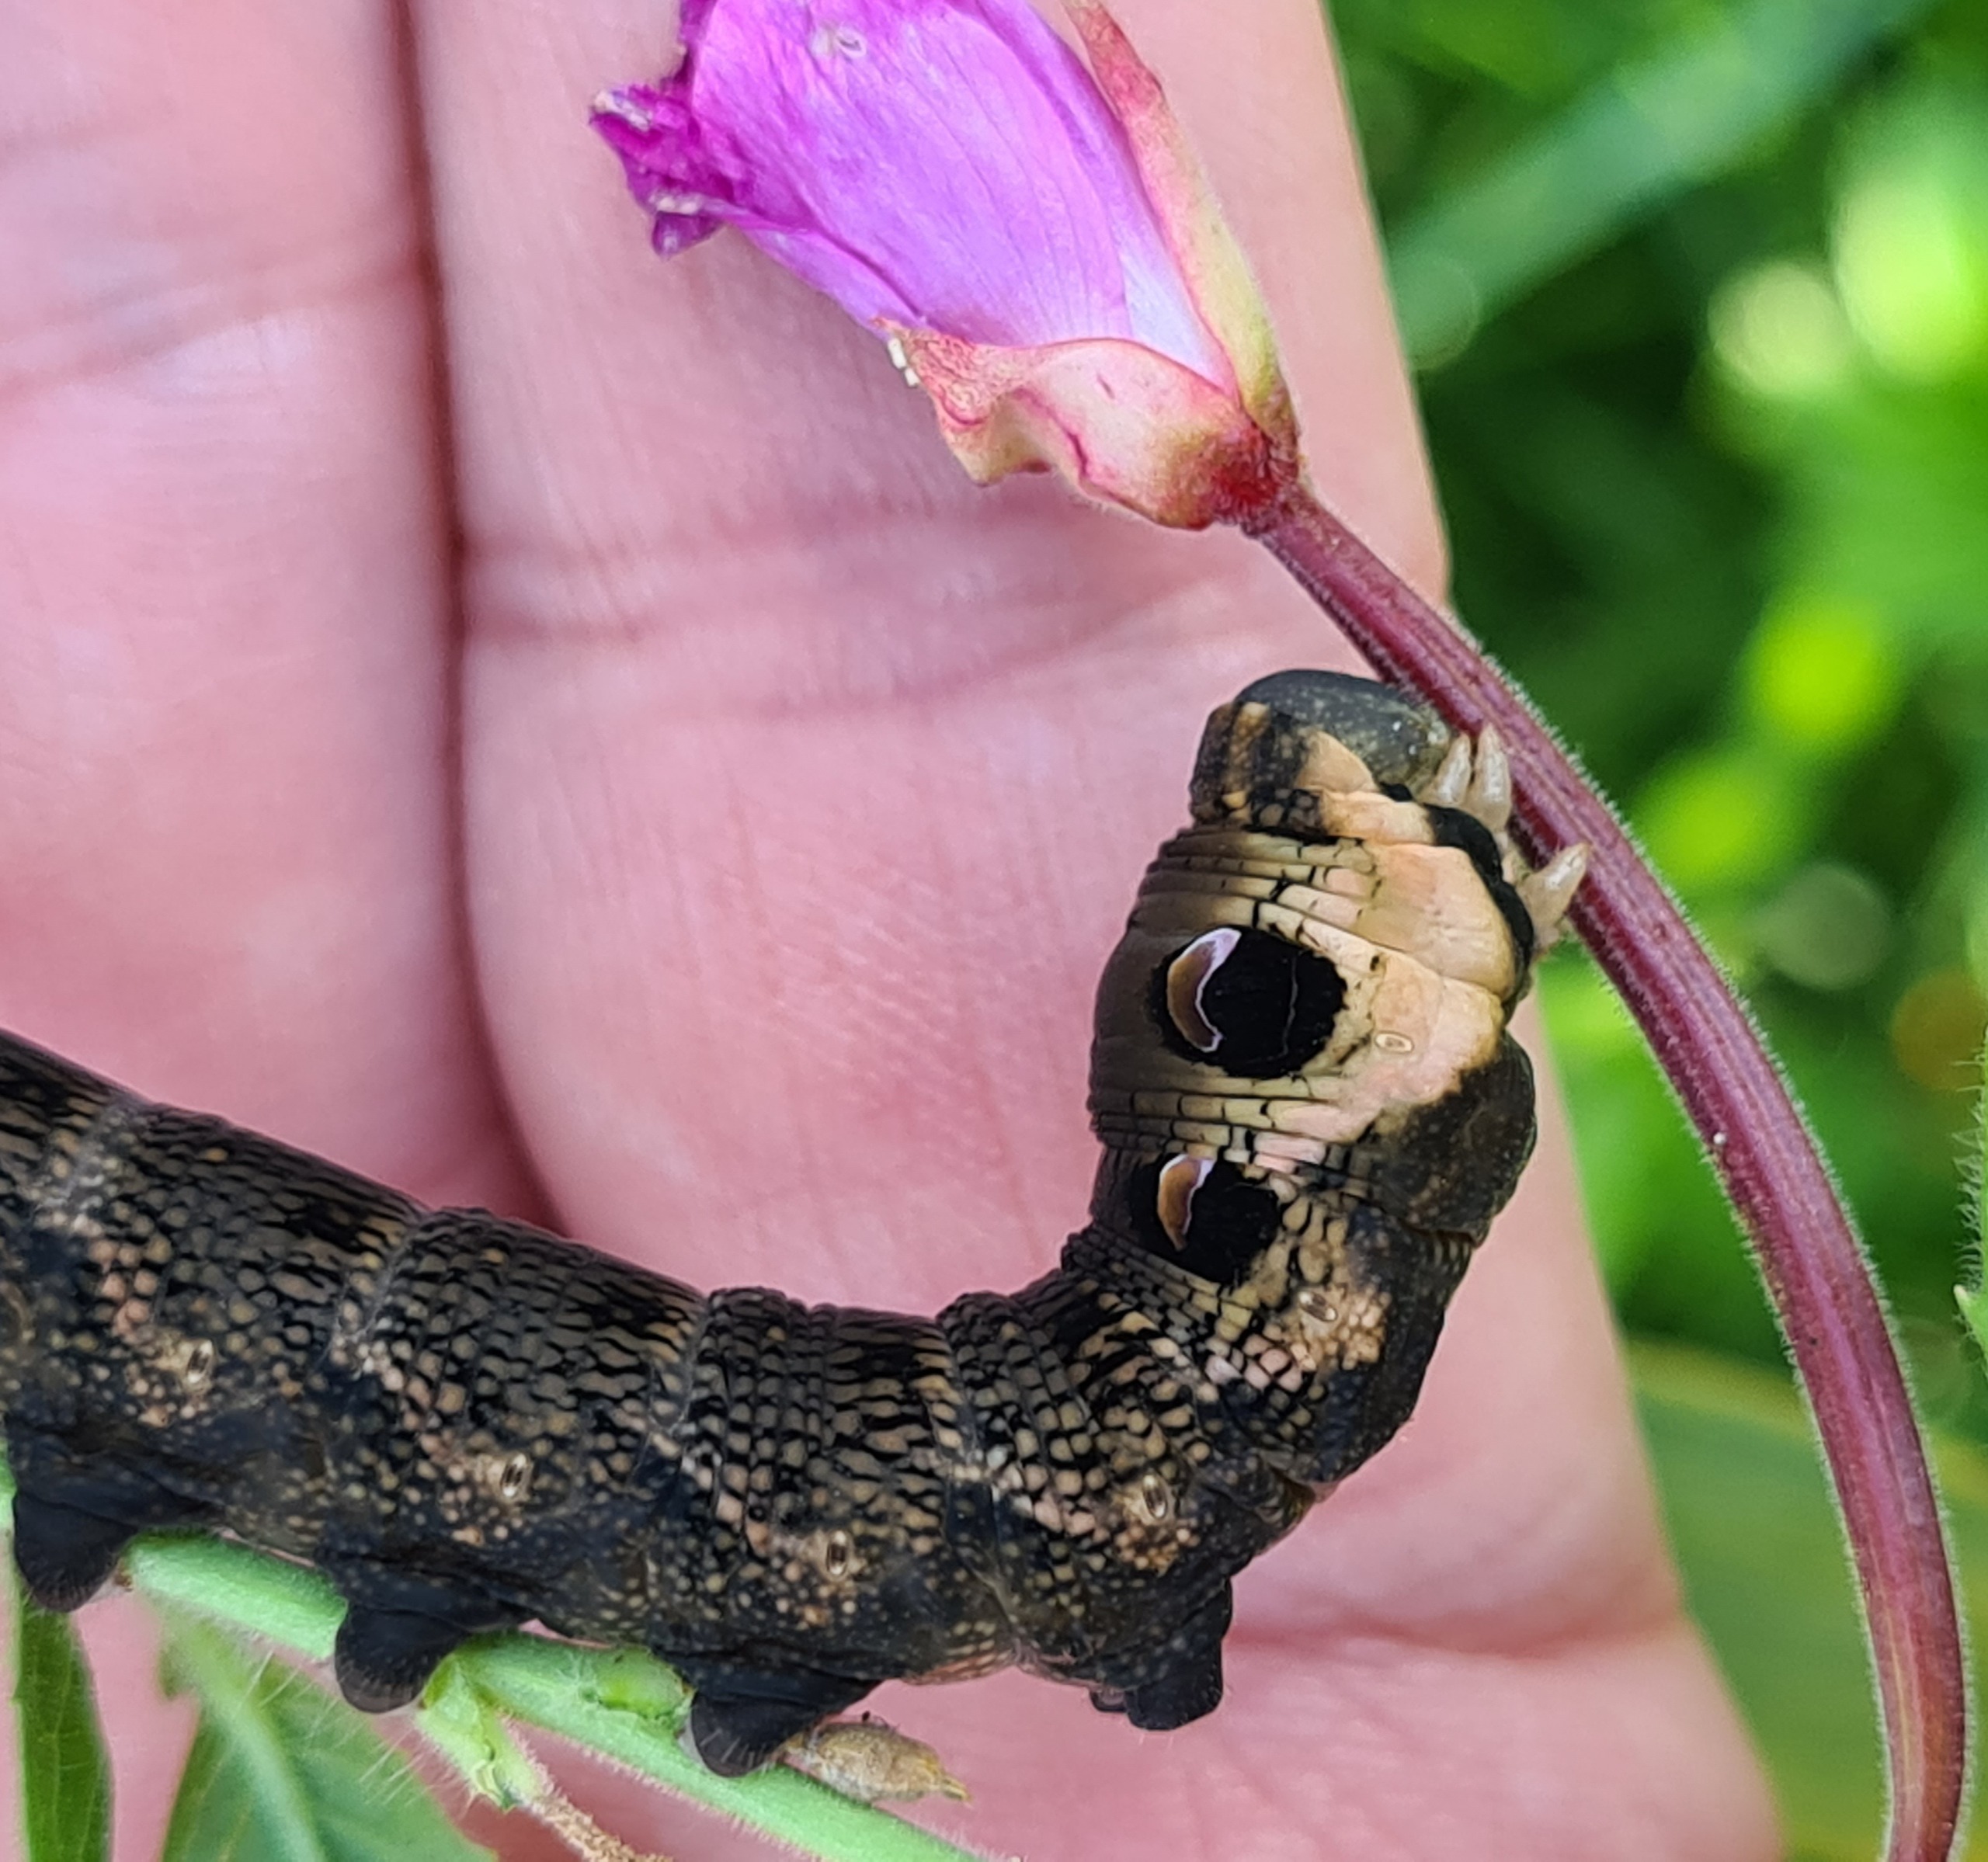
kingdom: Animalia
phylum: Arthropoda
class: Insecta
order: Lepidoptera
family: Sphingidae
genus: Deilephila
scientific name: Deilephila elpenor
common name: Dueurtsværmer
